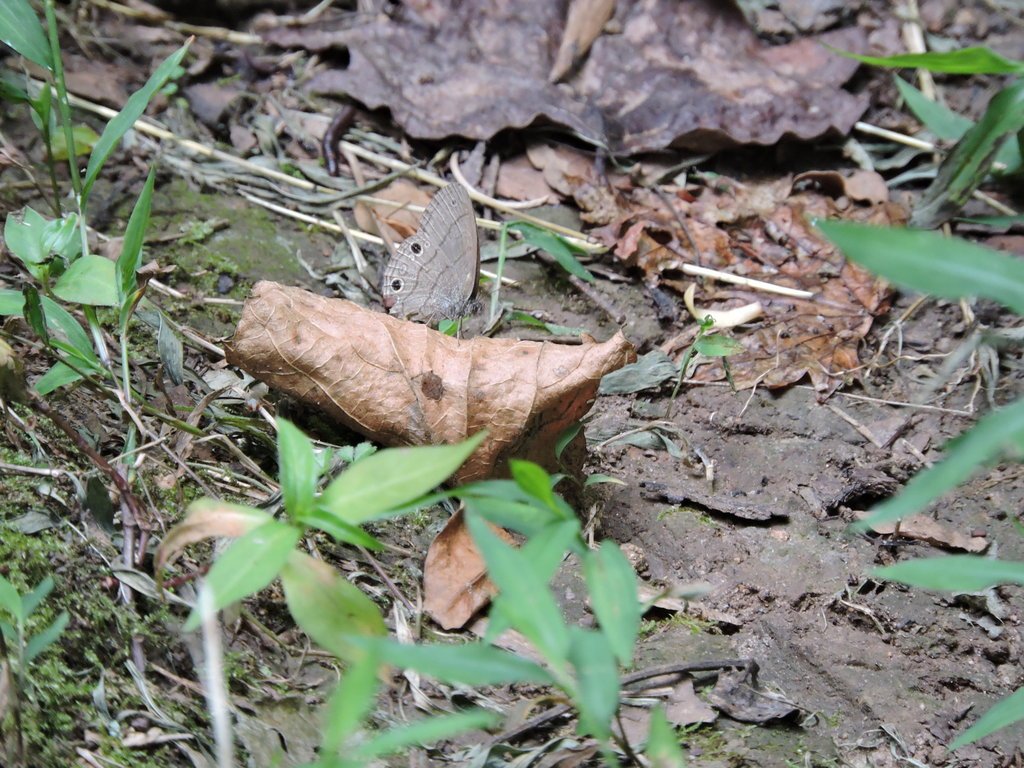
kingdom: Animalia
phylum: Arthropoda
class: Insecta
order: Lepidoptera
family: Nymphalidae
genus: Hermeuptychia
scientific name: Hermeuptychia hermes
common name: Carolina Satyr
